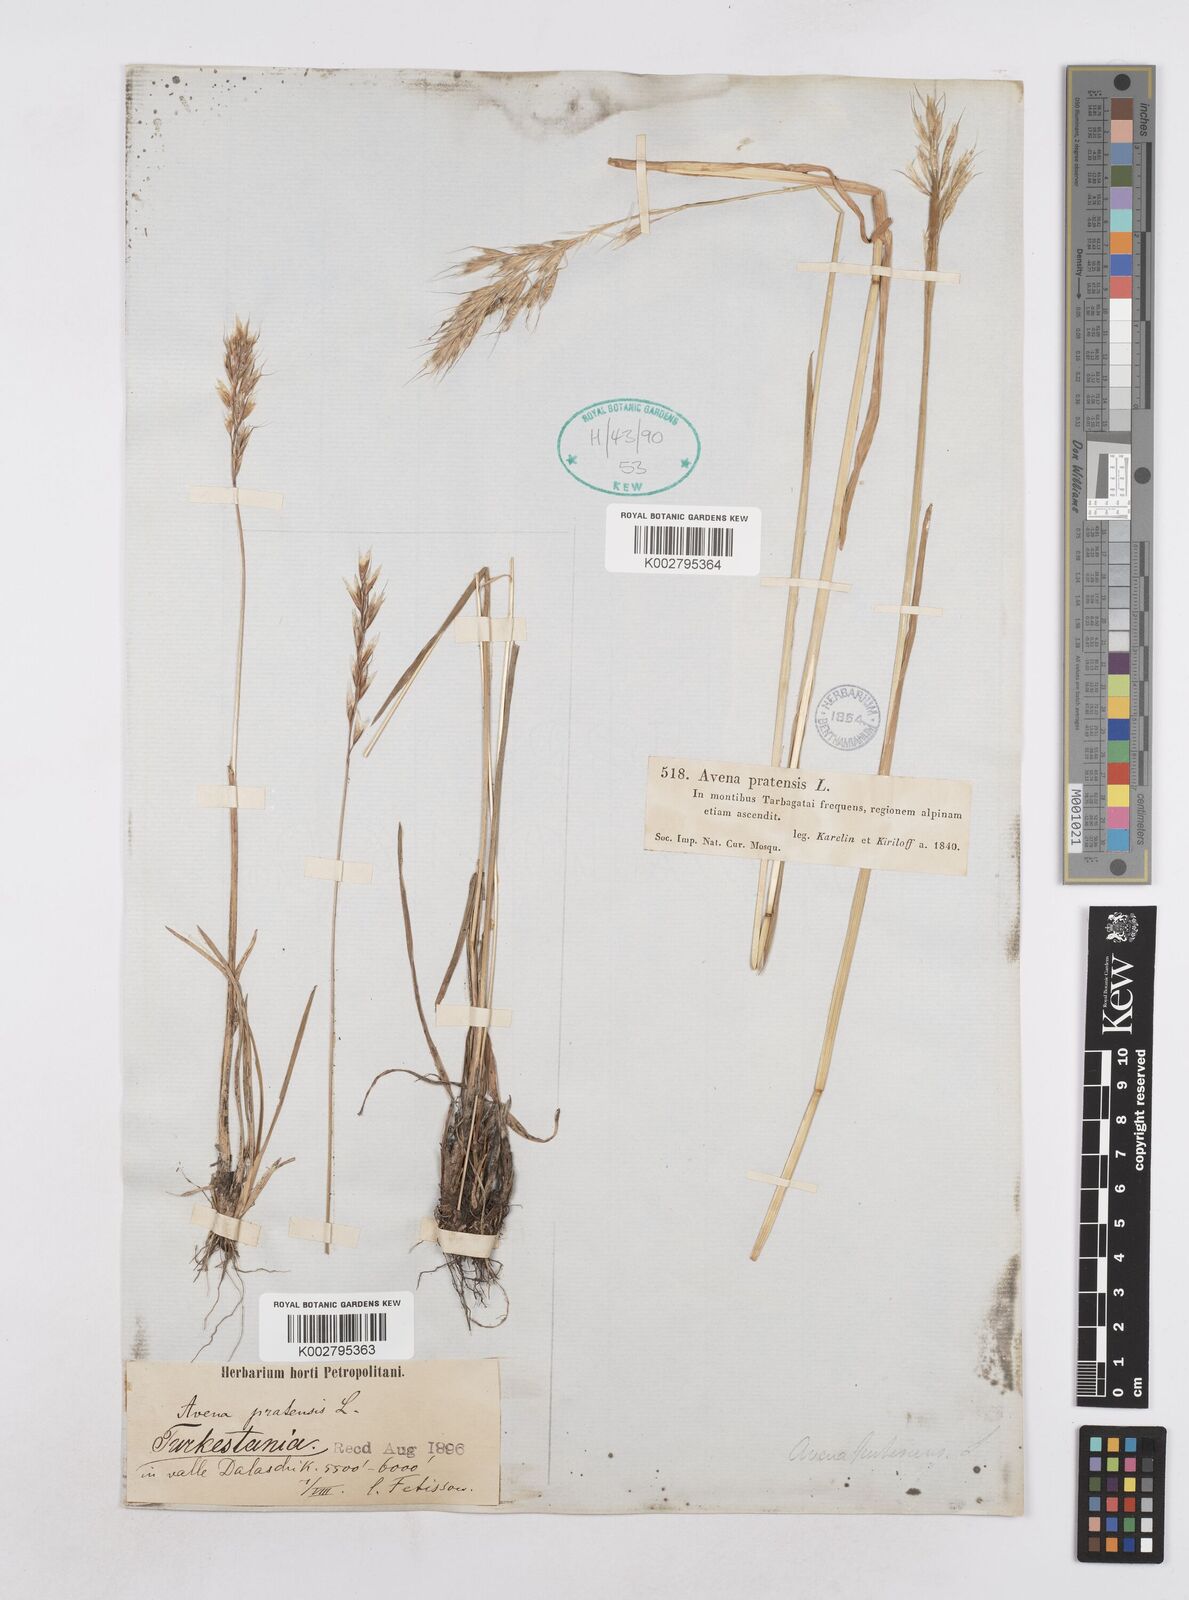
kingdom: Plantae
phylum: Tracheophyta
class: Liliopsida
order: Poales
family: Poaceae
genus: Helictotrichon
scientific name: Helictotrichon
